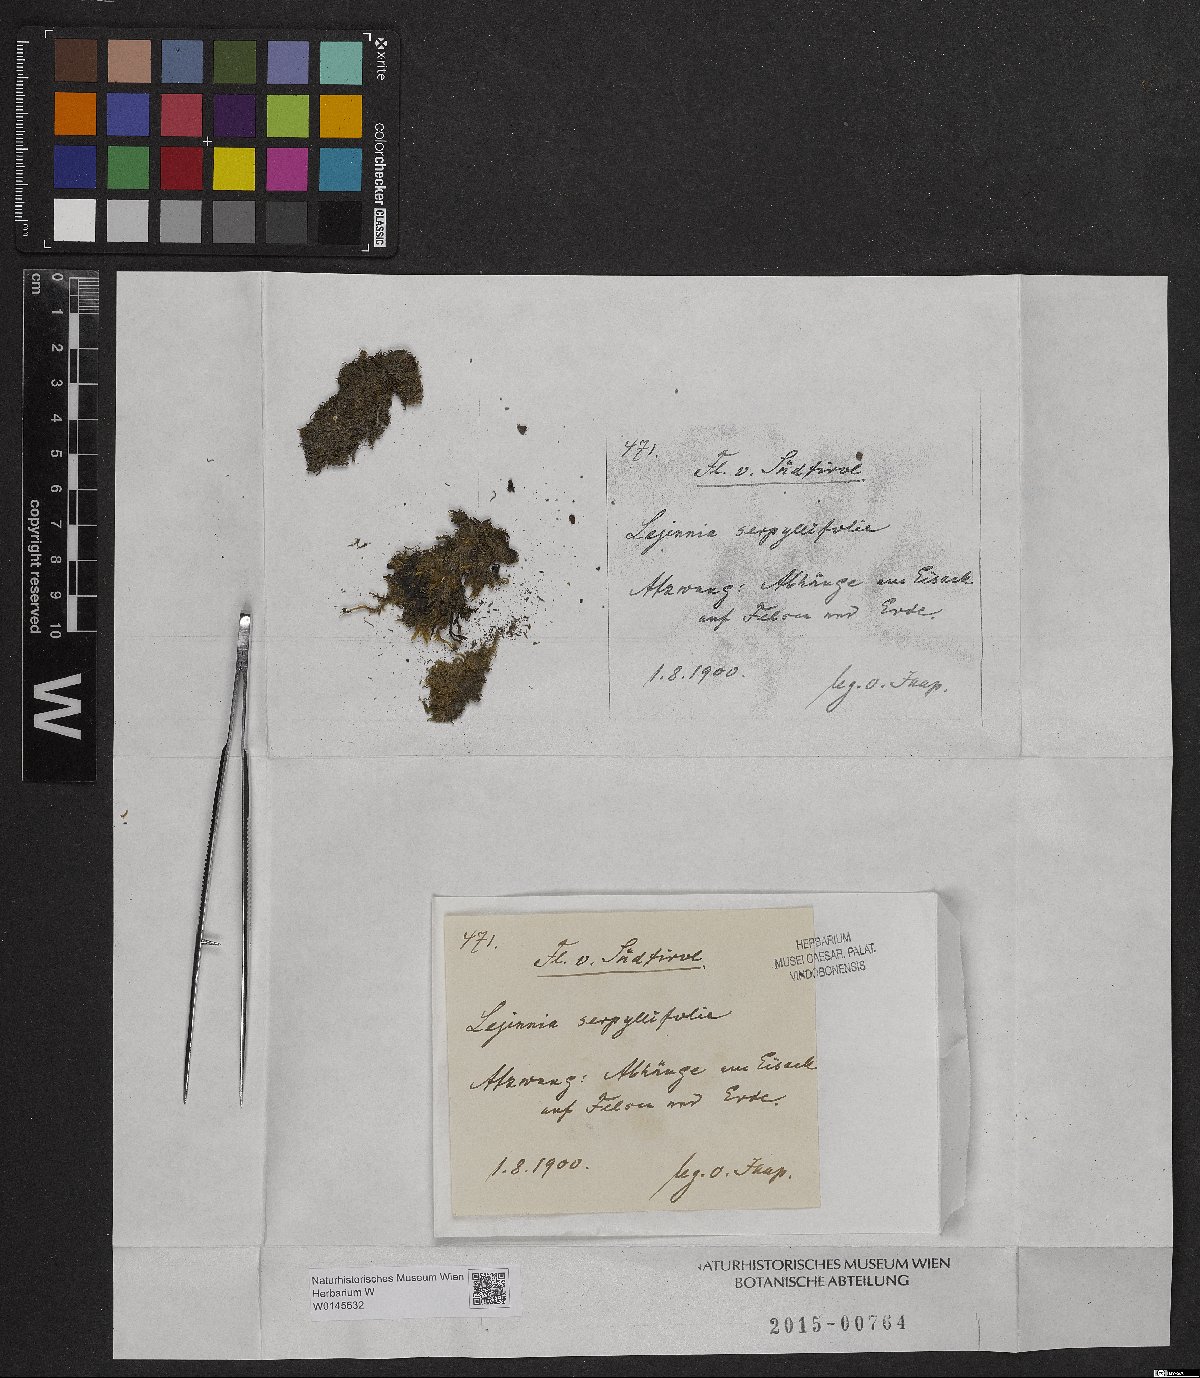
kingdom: Plantae
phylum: Marchantiophyta
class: Jungermanniopsida
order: Porellales
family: Lejeuneaceae
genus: Lejeunea
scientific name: Lejeunea patens
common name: Pearl pouncewort
